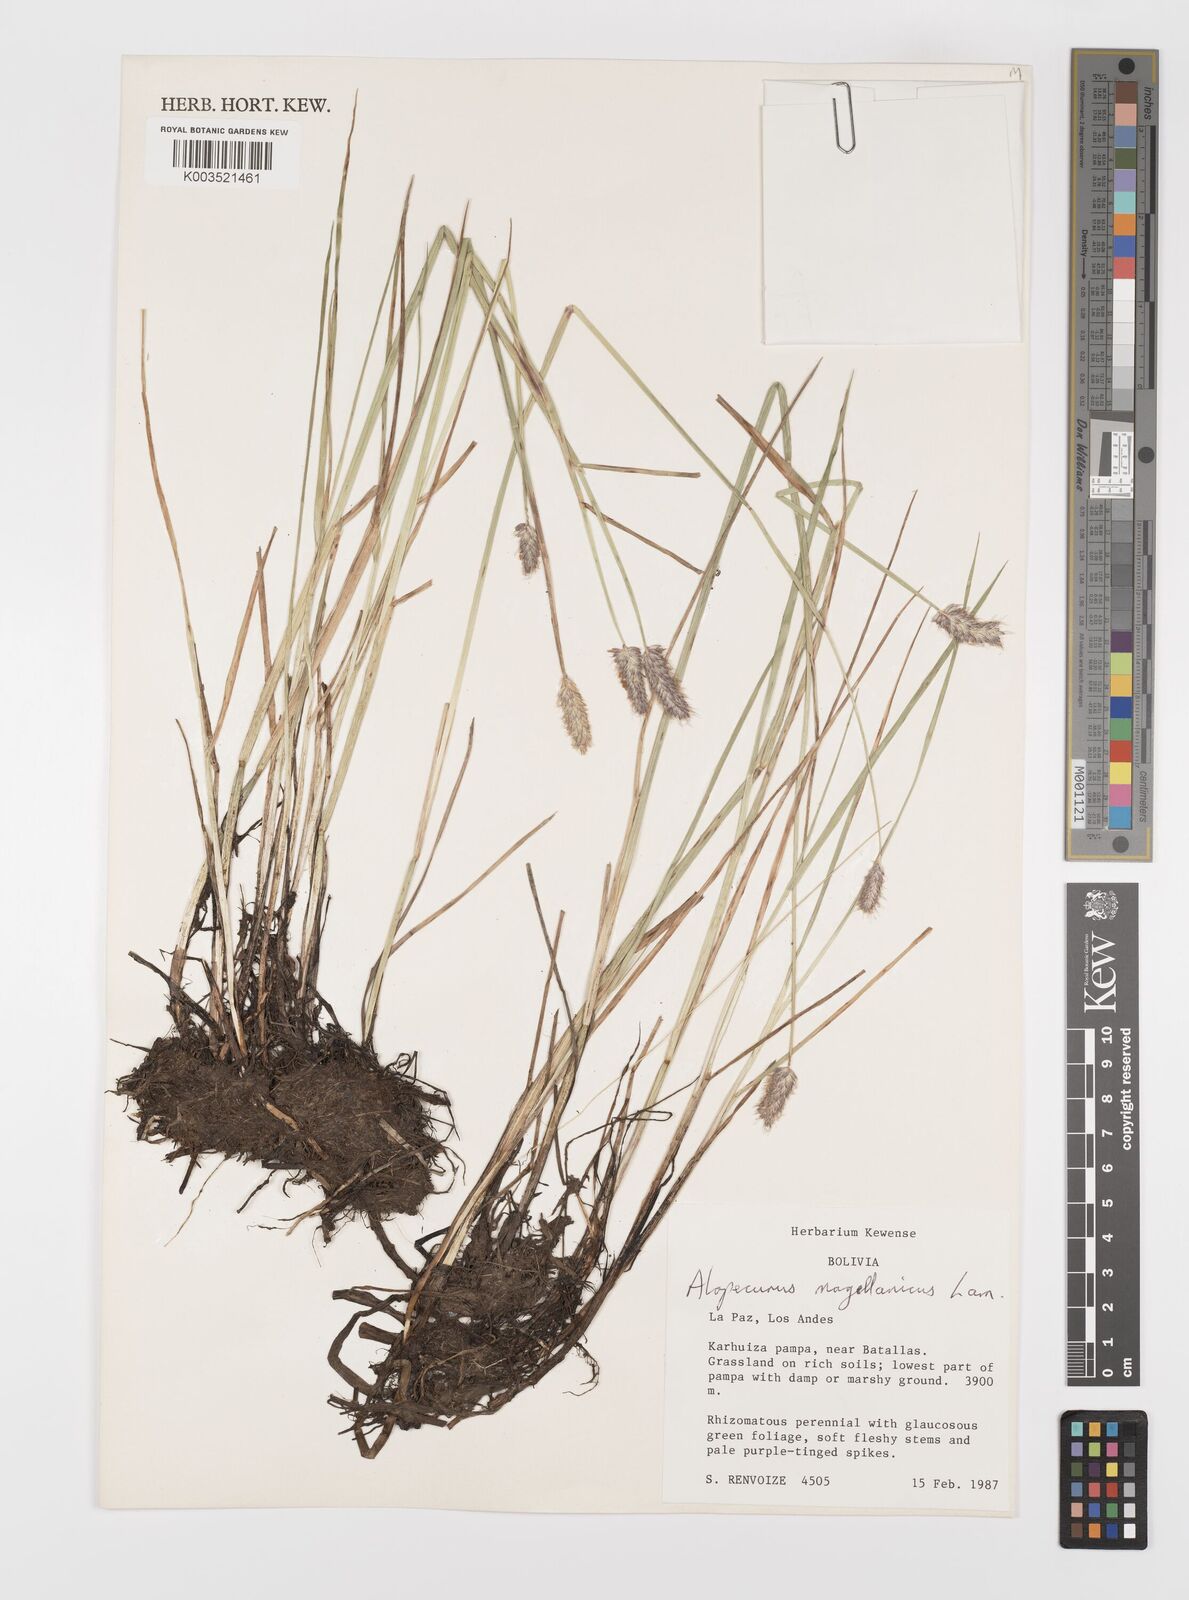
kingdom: Plantae
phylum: Tracheophyta
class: Liliopsida
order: Poales
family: Poaceae
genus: Alopecurus
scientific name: Alopecurus magellanicus
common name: Alpine foxtail
